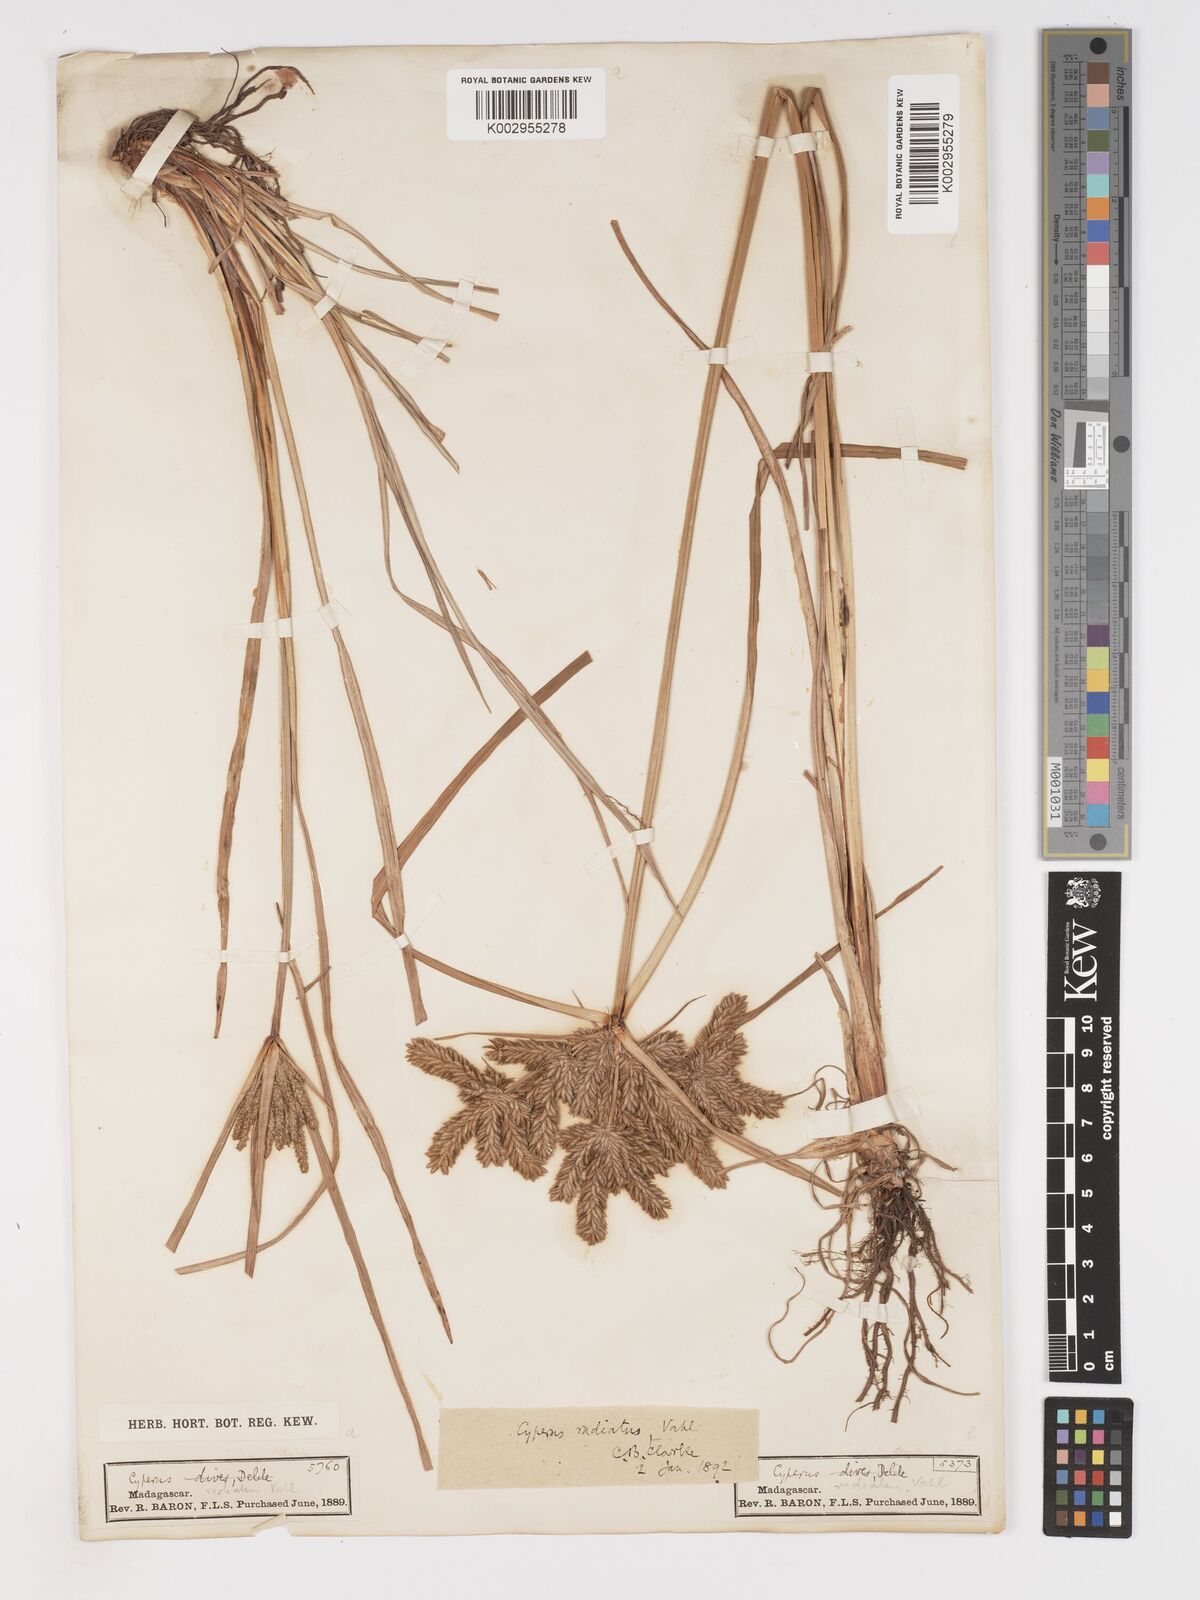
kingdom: Plantae
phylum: Tracheophyta
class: Liliopsida
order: Poales
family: Cyperaceae
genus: Cyperus
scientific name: Cyperus imbricatus
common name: Shingle flatsedge
